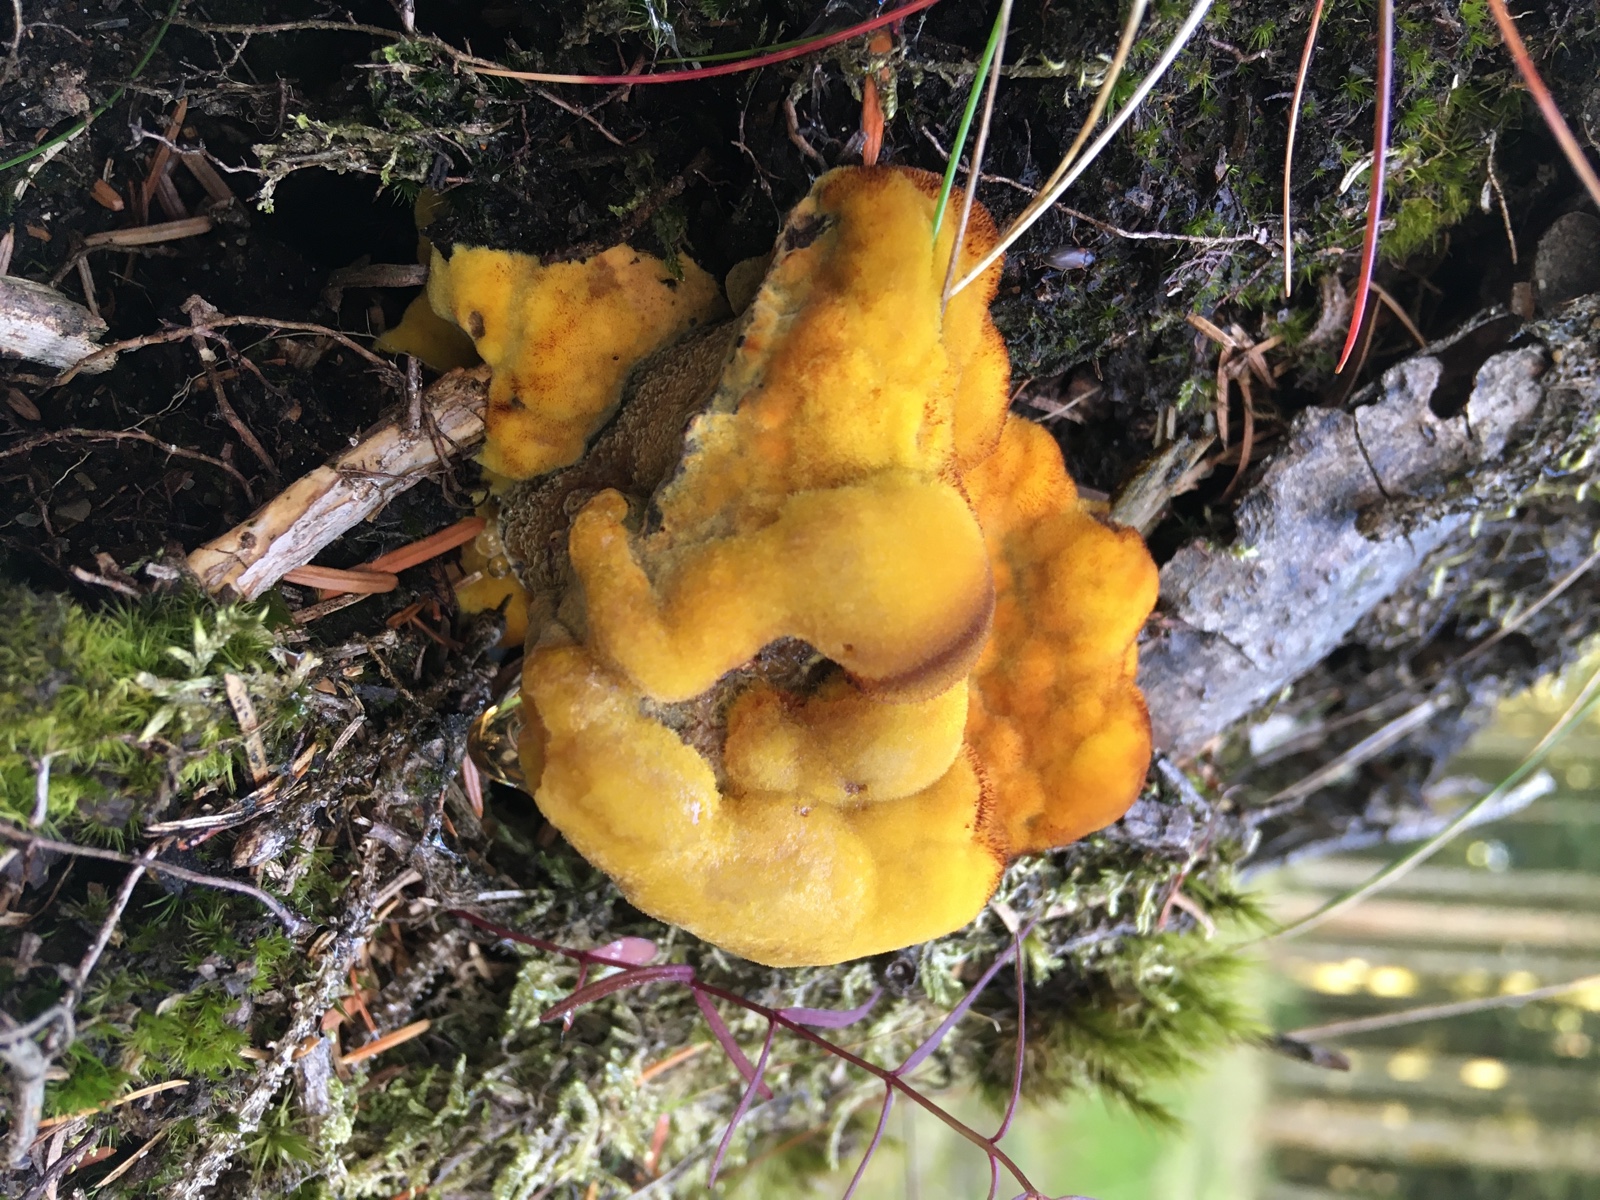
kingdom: Fungi
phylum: Basidiomycota
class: Agaricomycetes
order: Polyporales
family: Laetiporaceae
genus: Phaeolus
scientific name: Phaeolus schweinitzii
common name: brunporesvamp
